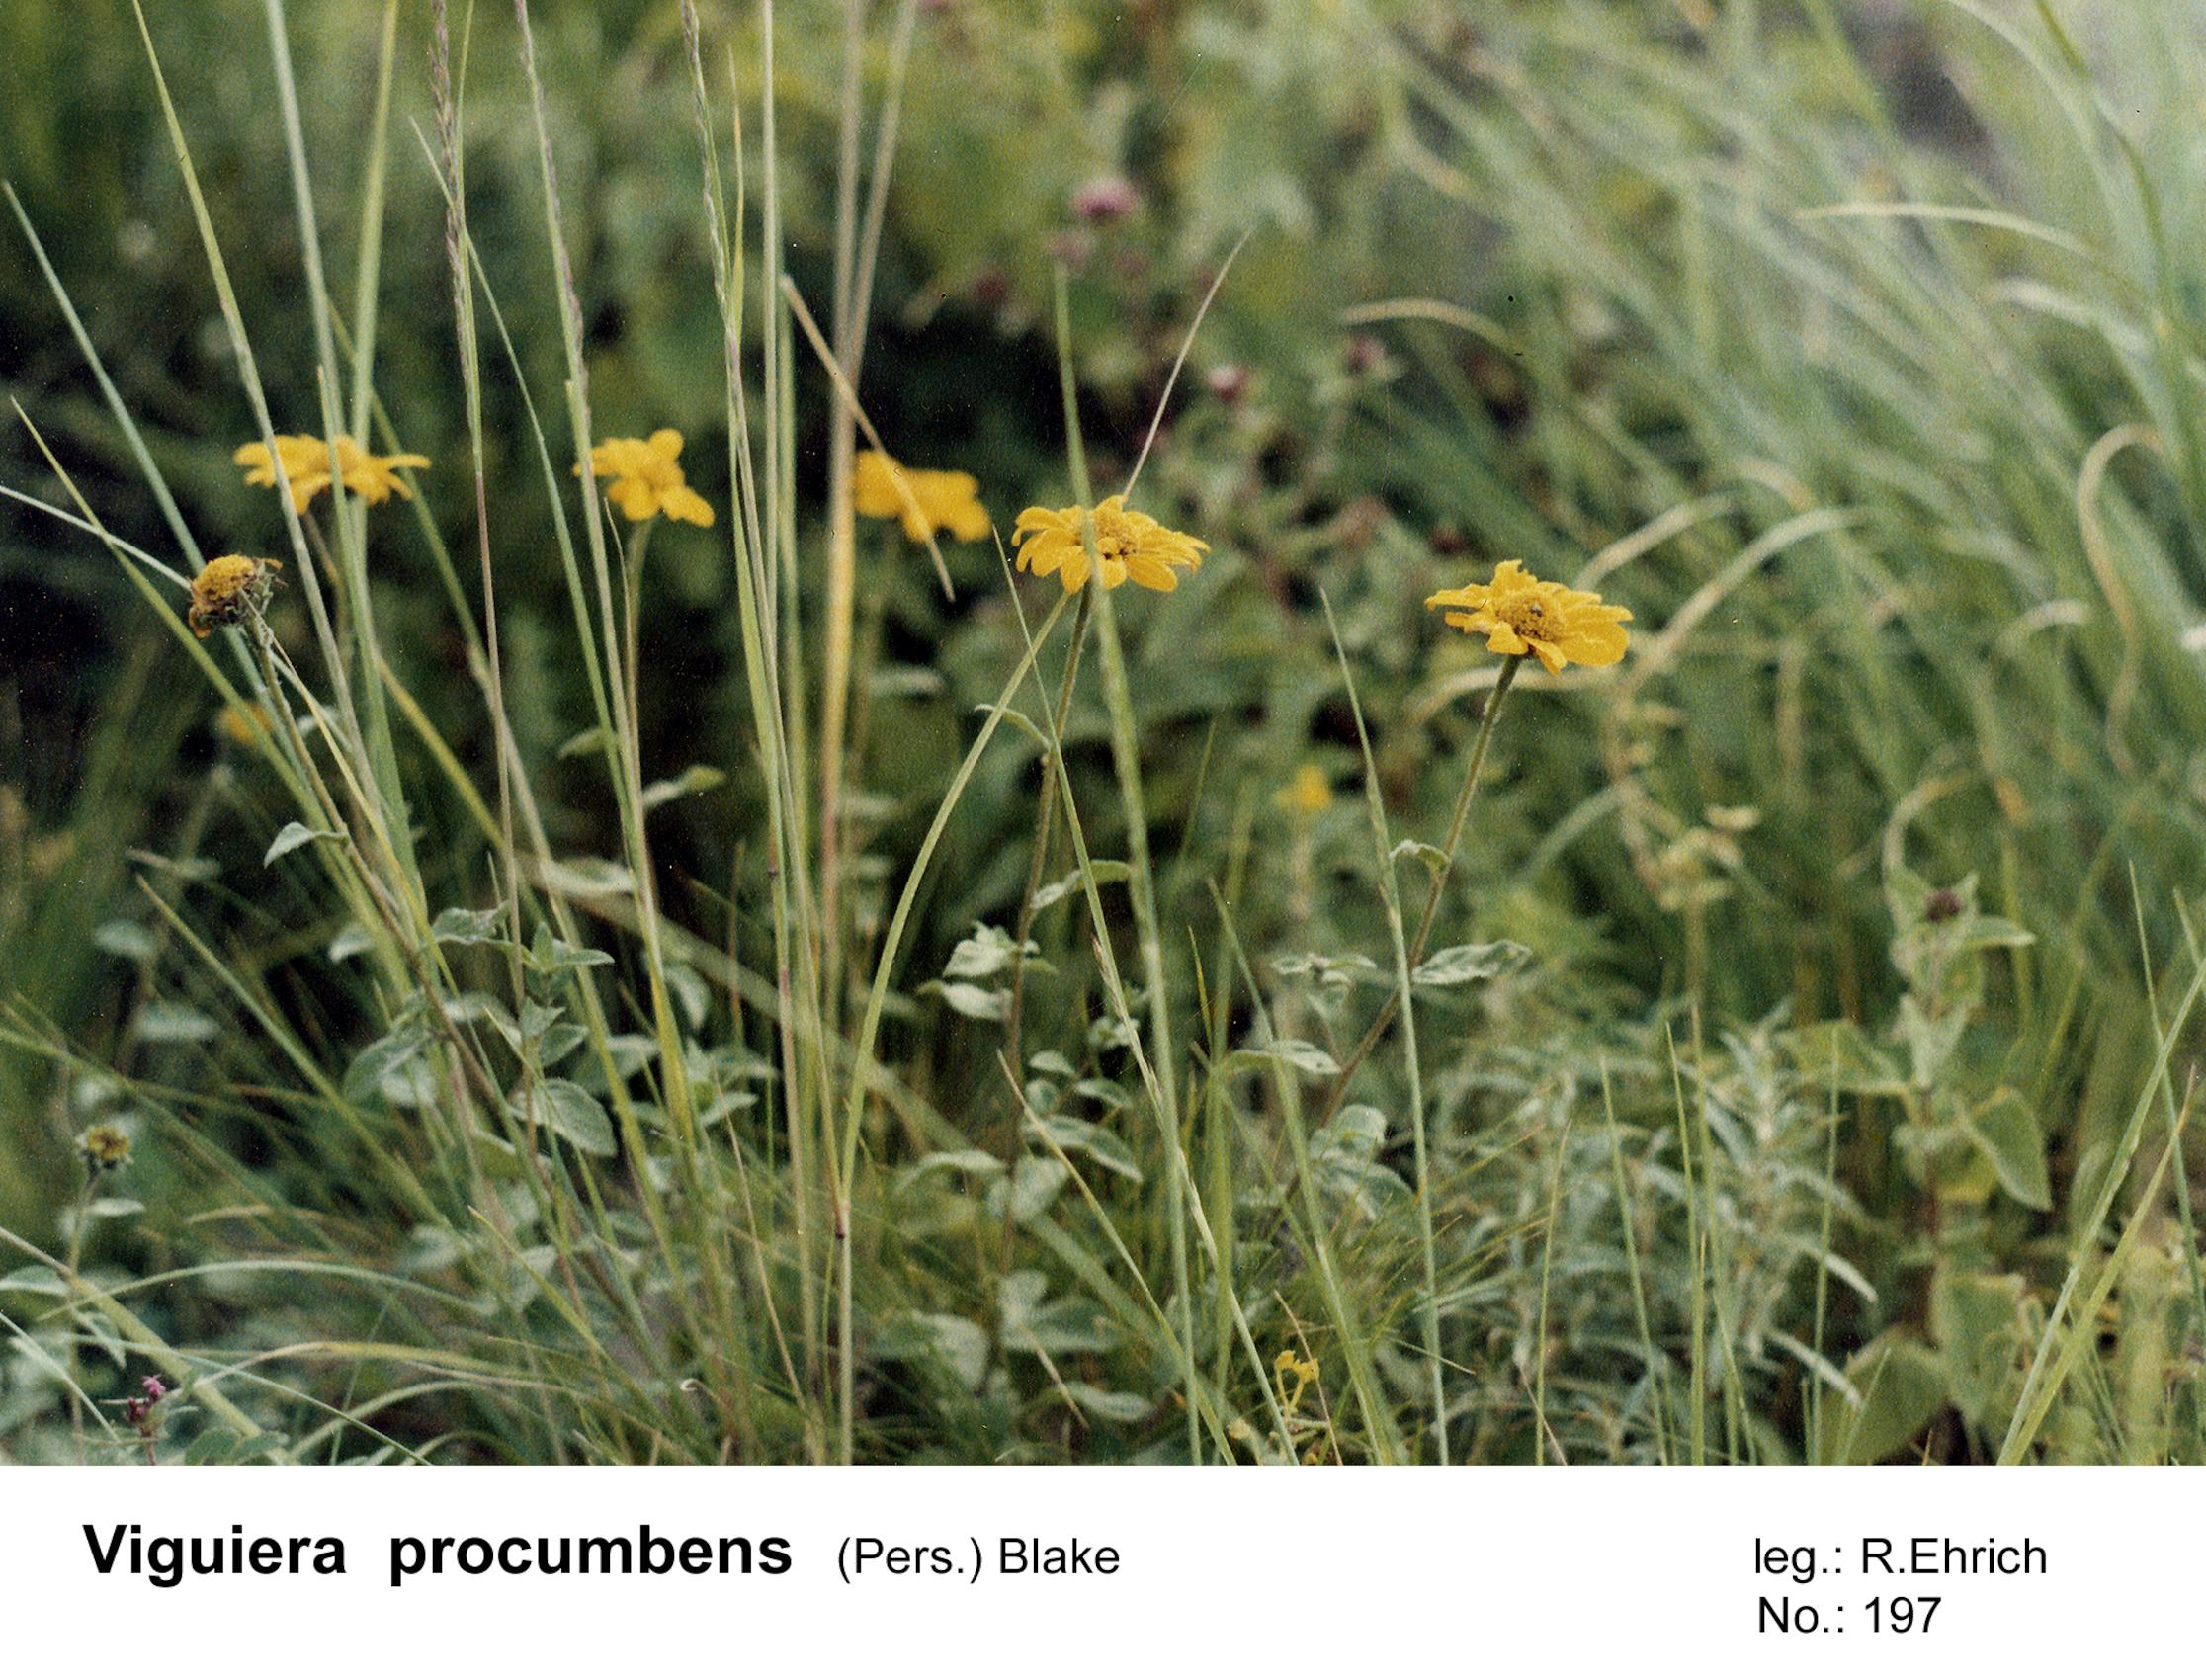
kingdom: Plantae
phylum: Tracheophyta
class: Magnoliopsida
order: Asterales
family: Asteraceae
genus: Aldama
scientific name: Aldama helianthoides
